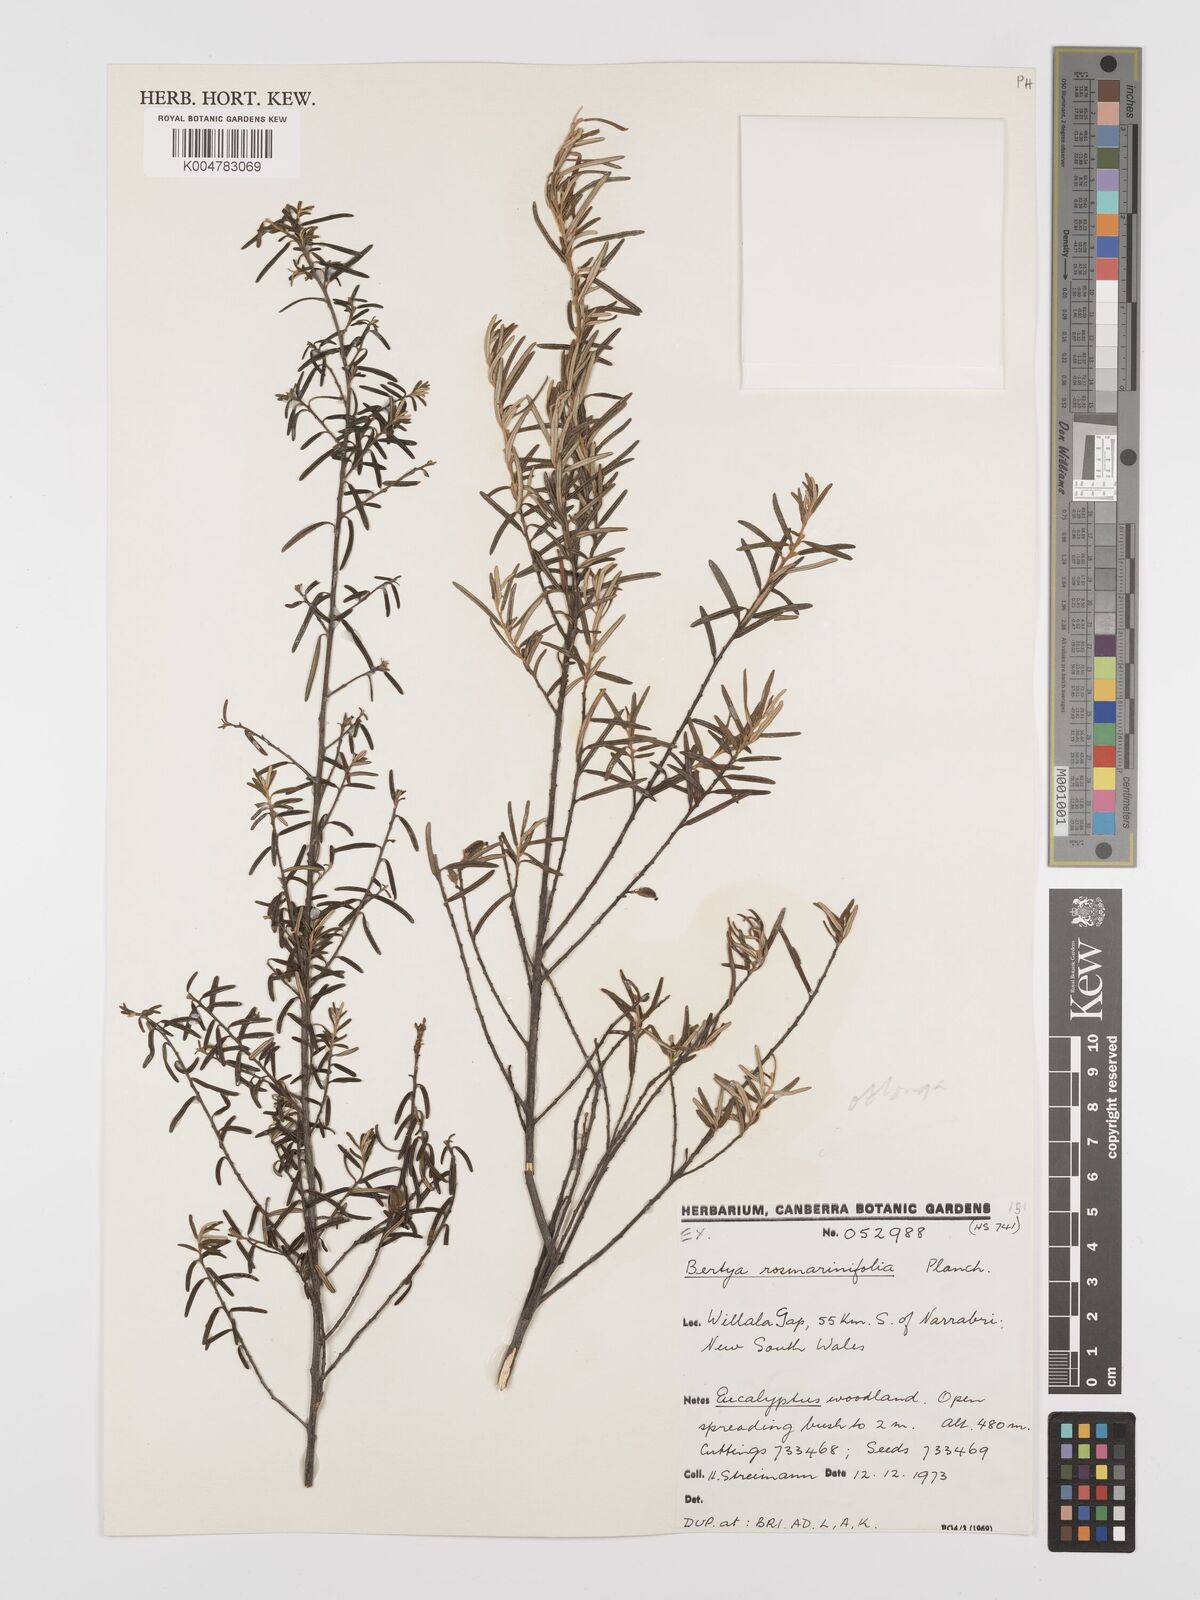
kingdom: Plantae
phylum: Tracheophyta
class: Magnoliopsida
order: Malpighiales
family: Euphorbiaceae
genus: Bertya
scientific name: Bertya oblonga
